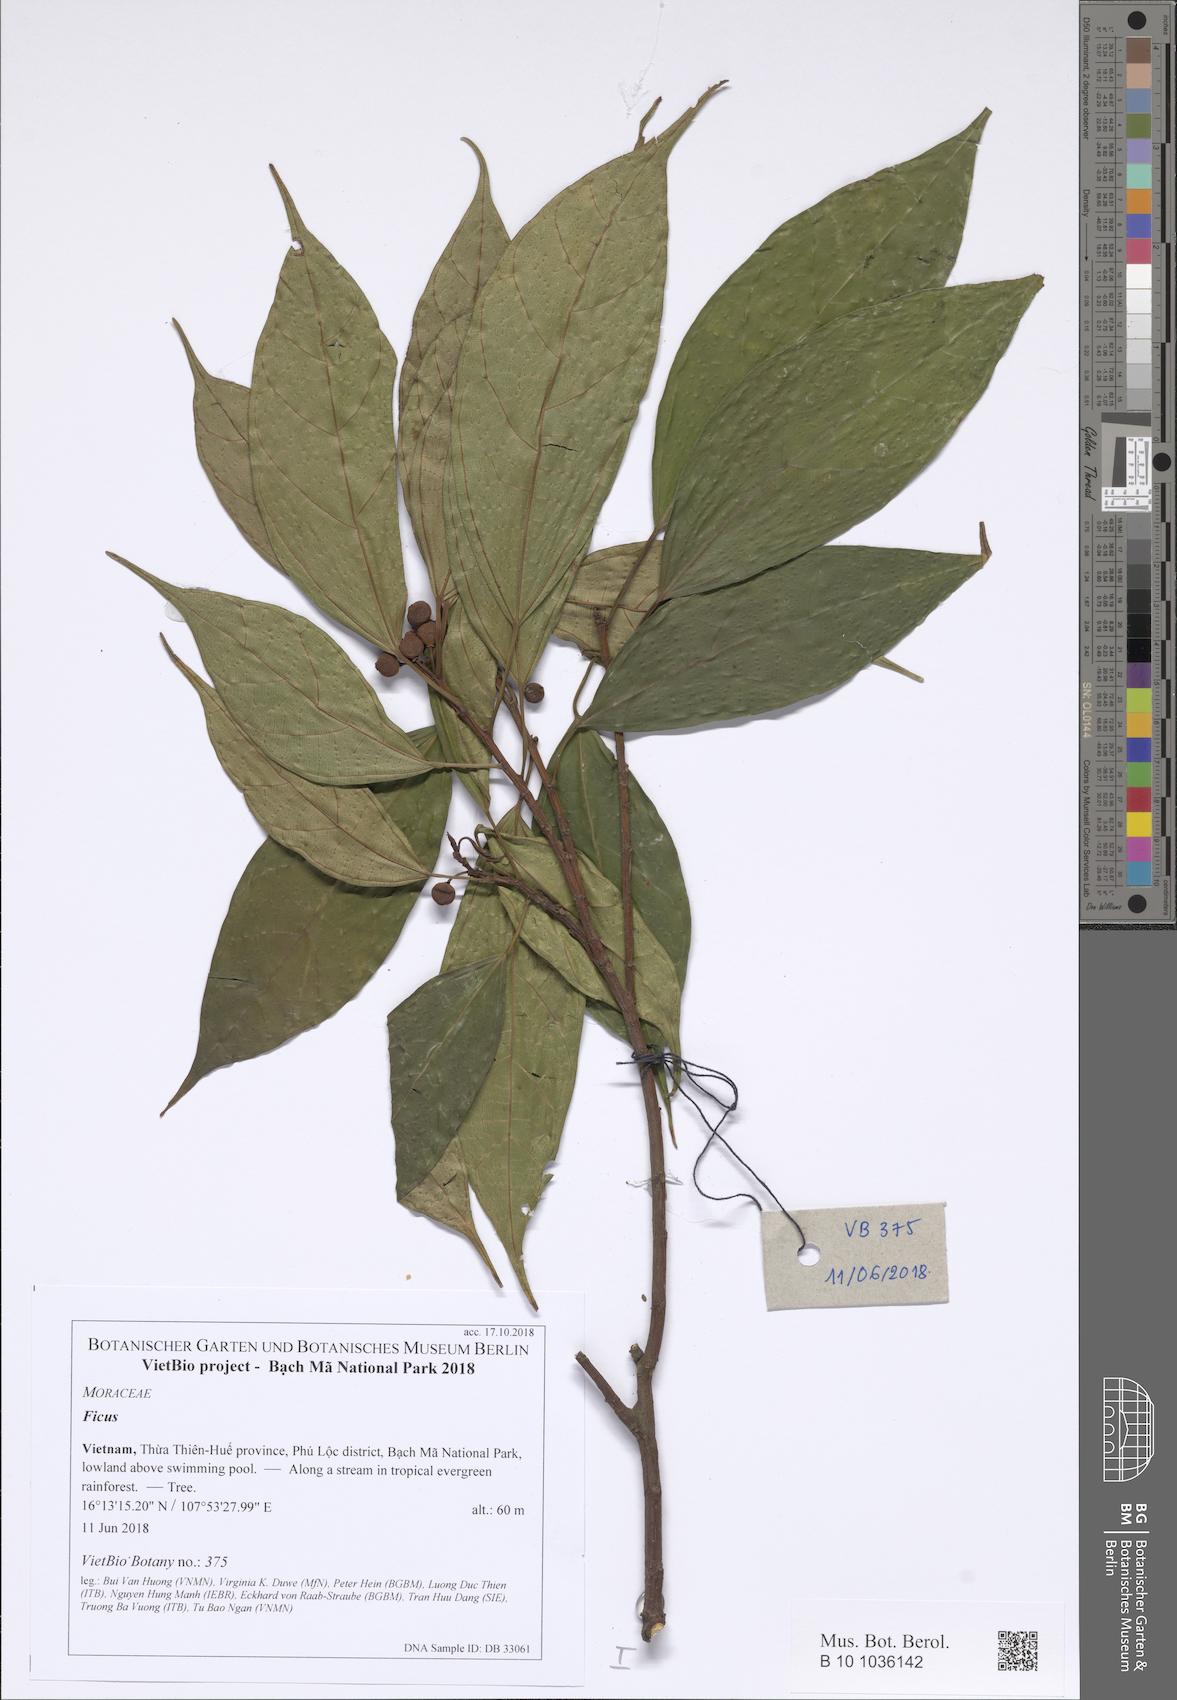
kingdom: Plantae
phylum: Tracheophyta
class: Magnoliopsida
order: Rosales
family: Moraceae
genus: Ficus
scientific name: Ficus
